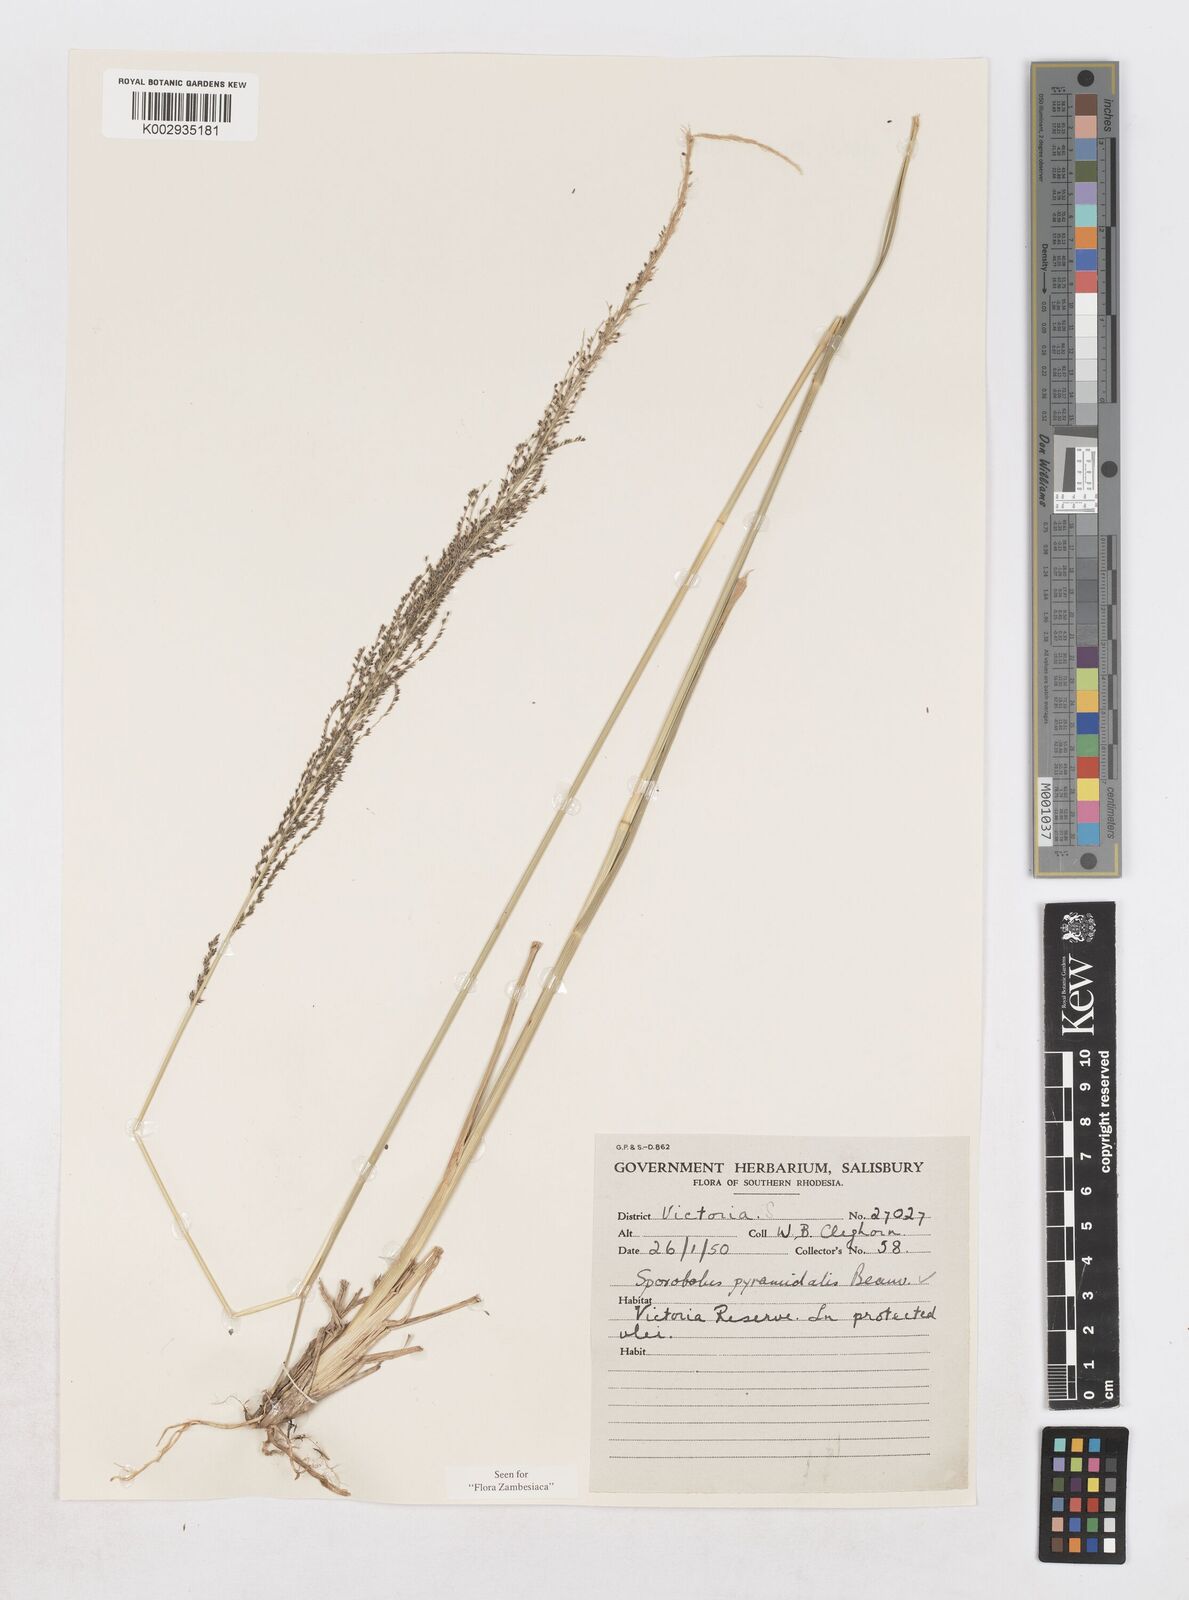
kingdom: Plantae
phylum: Tracheophyta
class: Liliopsida
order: Poales
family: Poaceae
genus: Sporobolus
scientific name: Sporobolus pyramidalis
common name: West indian dropseed
